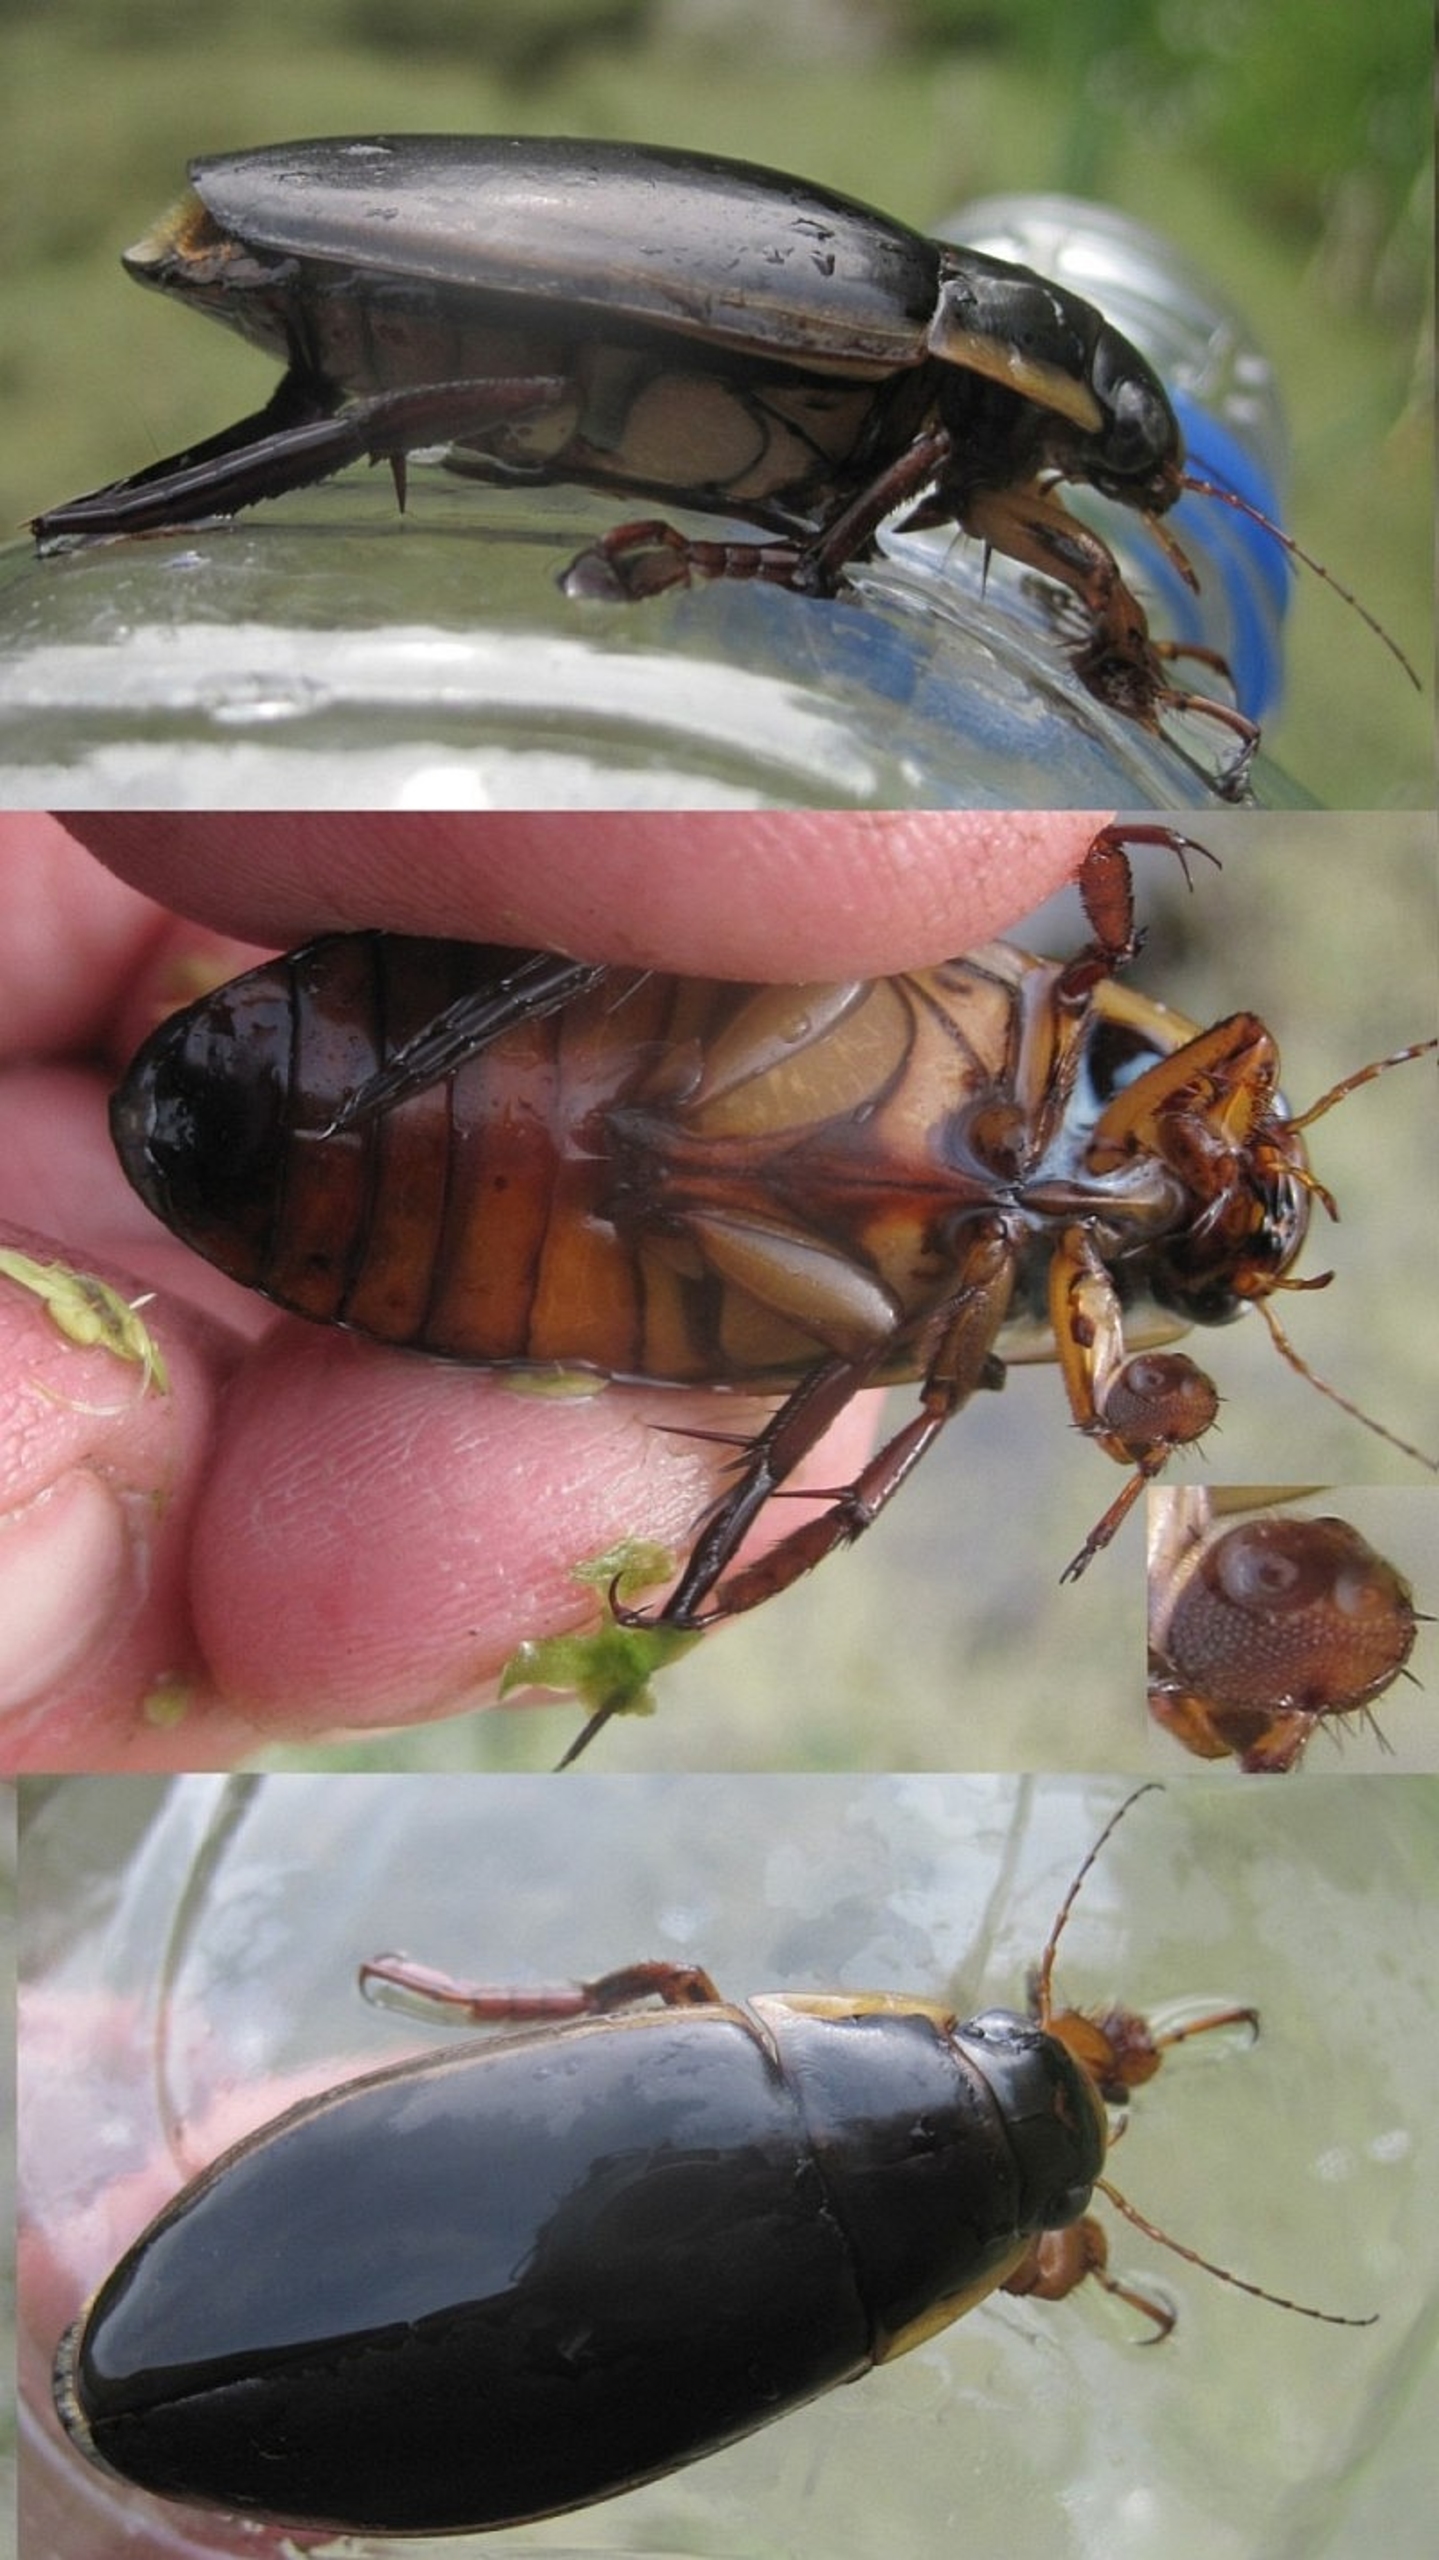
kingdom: Animalia
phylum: Arthropoda
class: Insecta
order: Coleoptera
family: Dytiscidae
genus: Dytiscus
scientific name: Dytiscus dimidiatus
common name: Rundhoftet vandkalv
